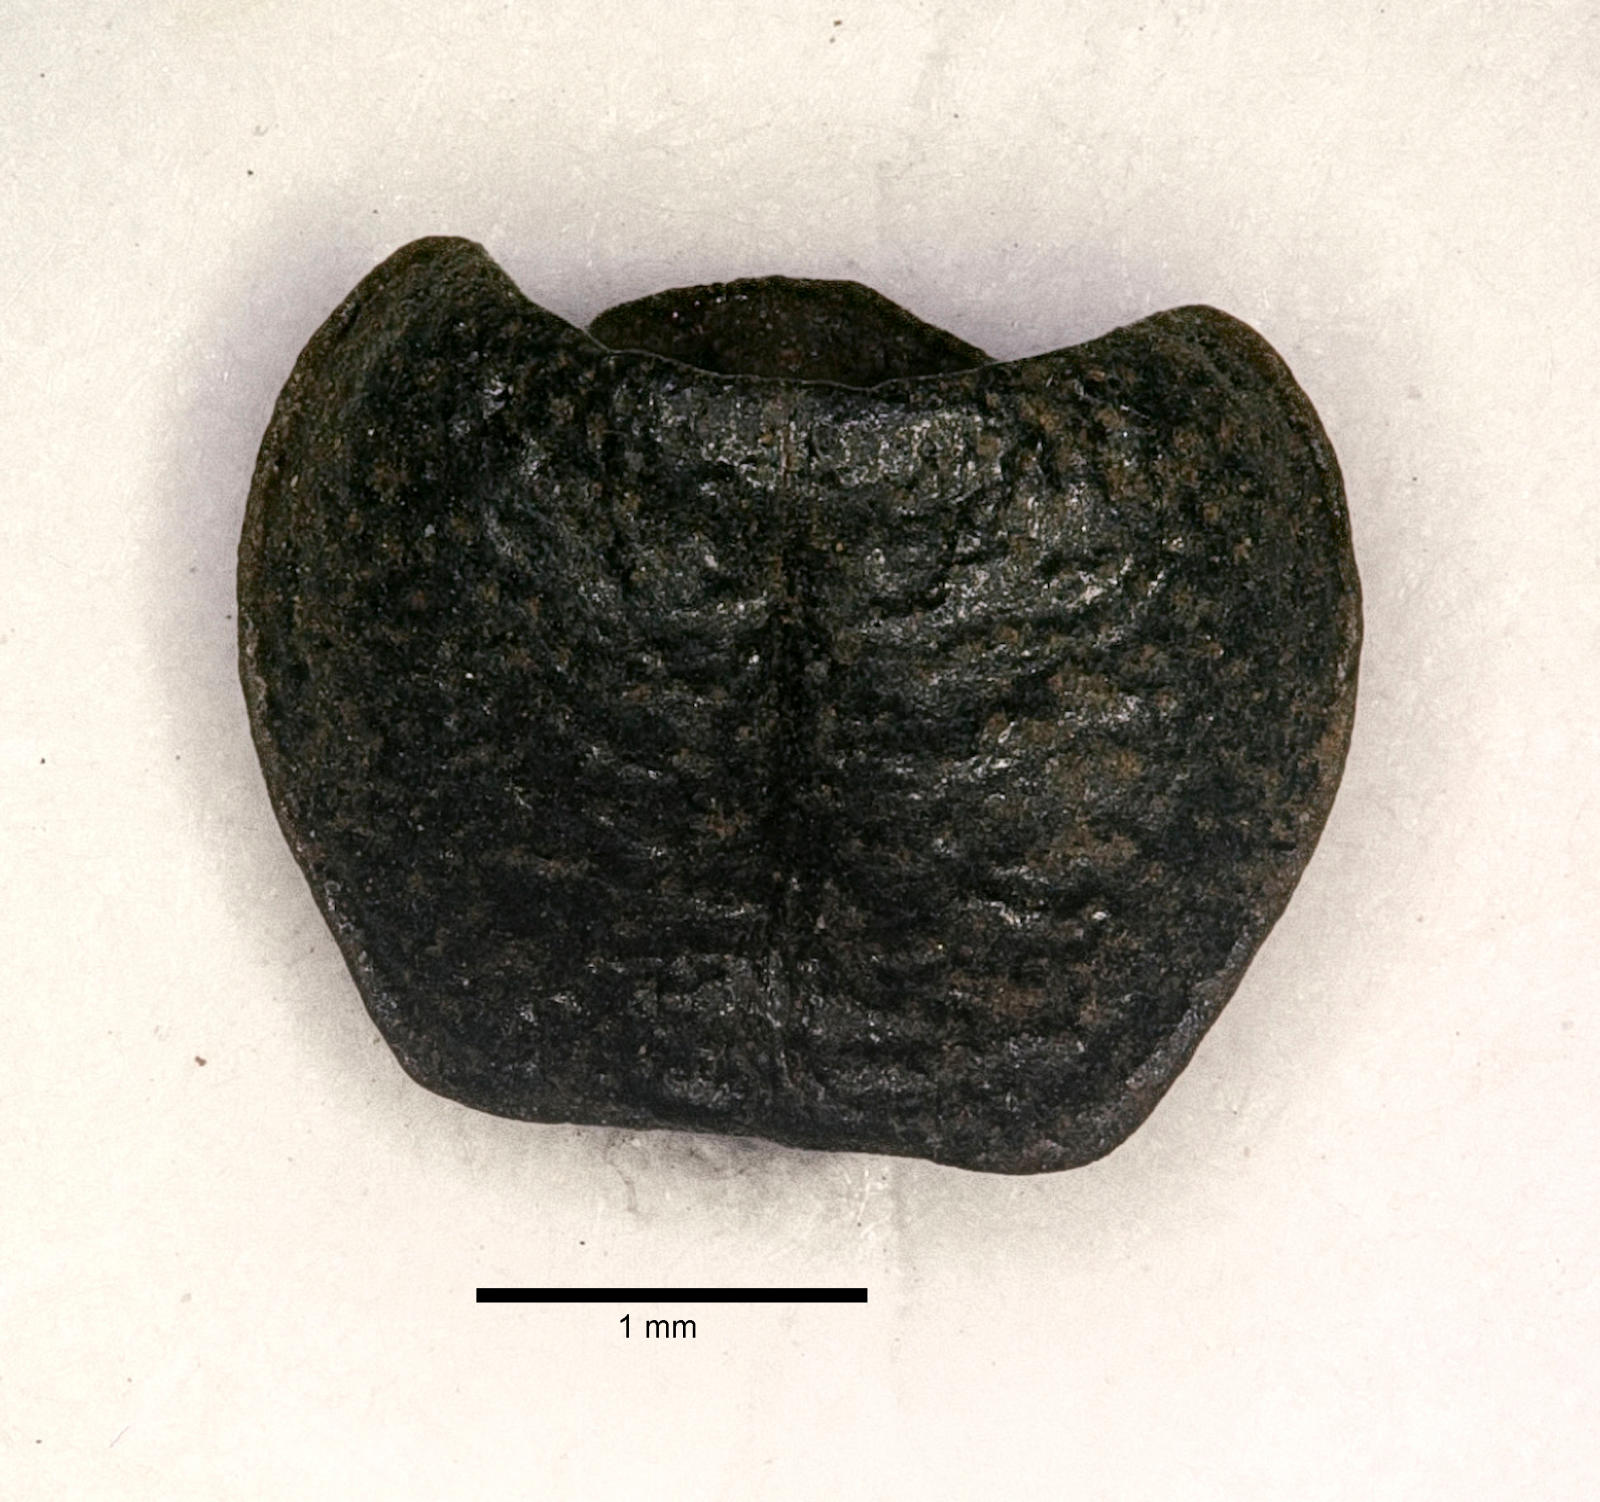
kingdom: Animalia
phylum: Arthropoda
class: Insecta
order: Coleoptera
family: Carabidae
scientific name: Carabidae
